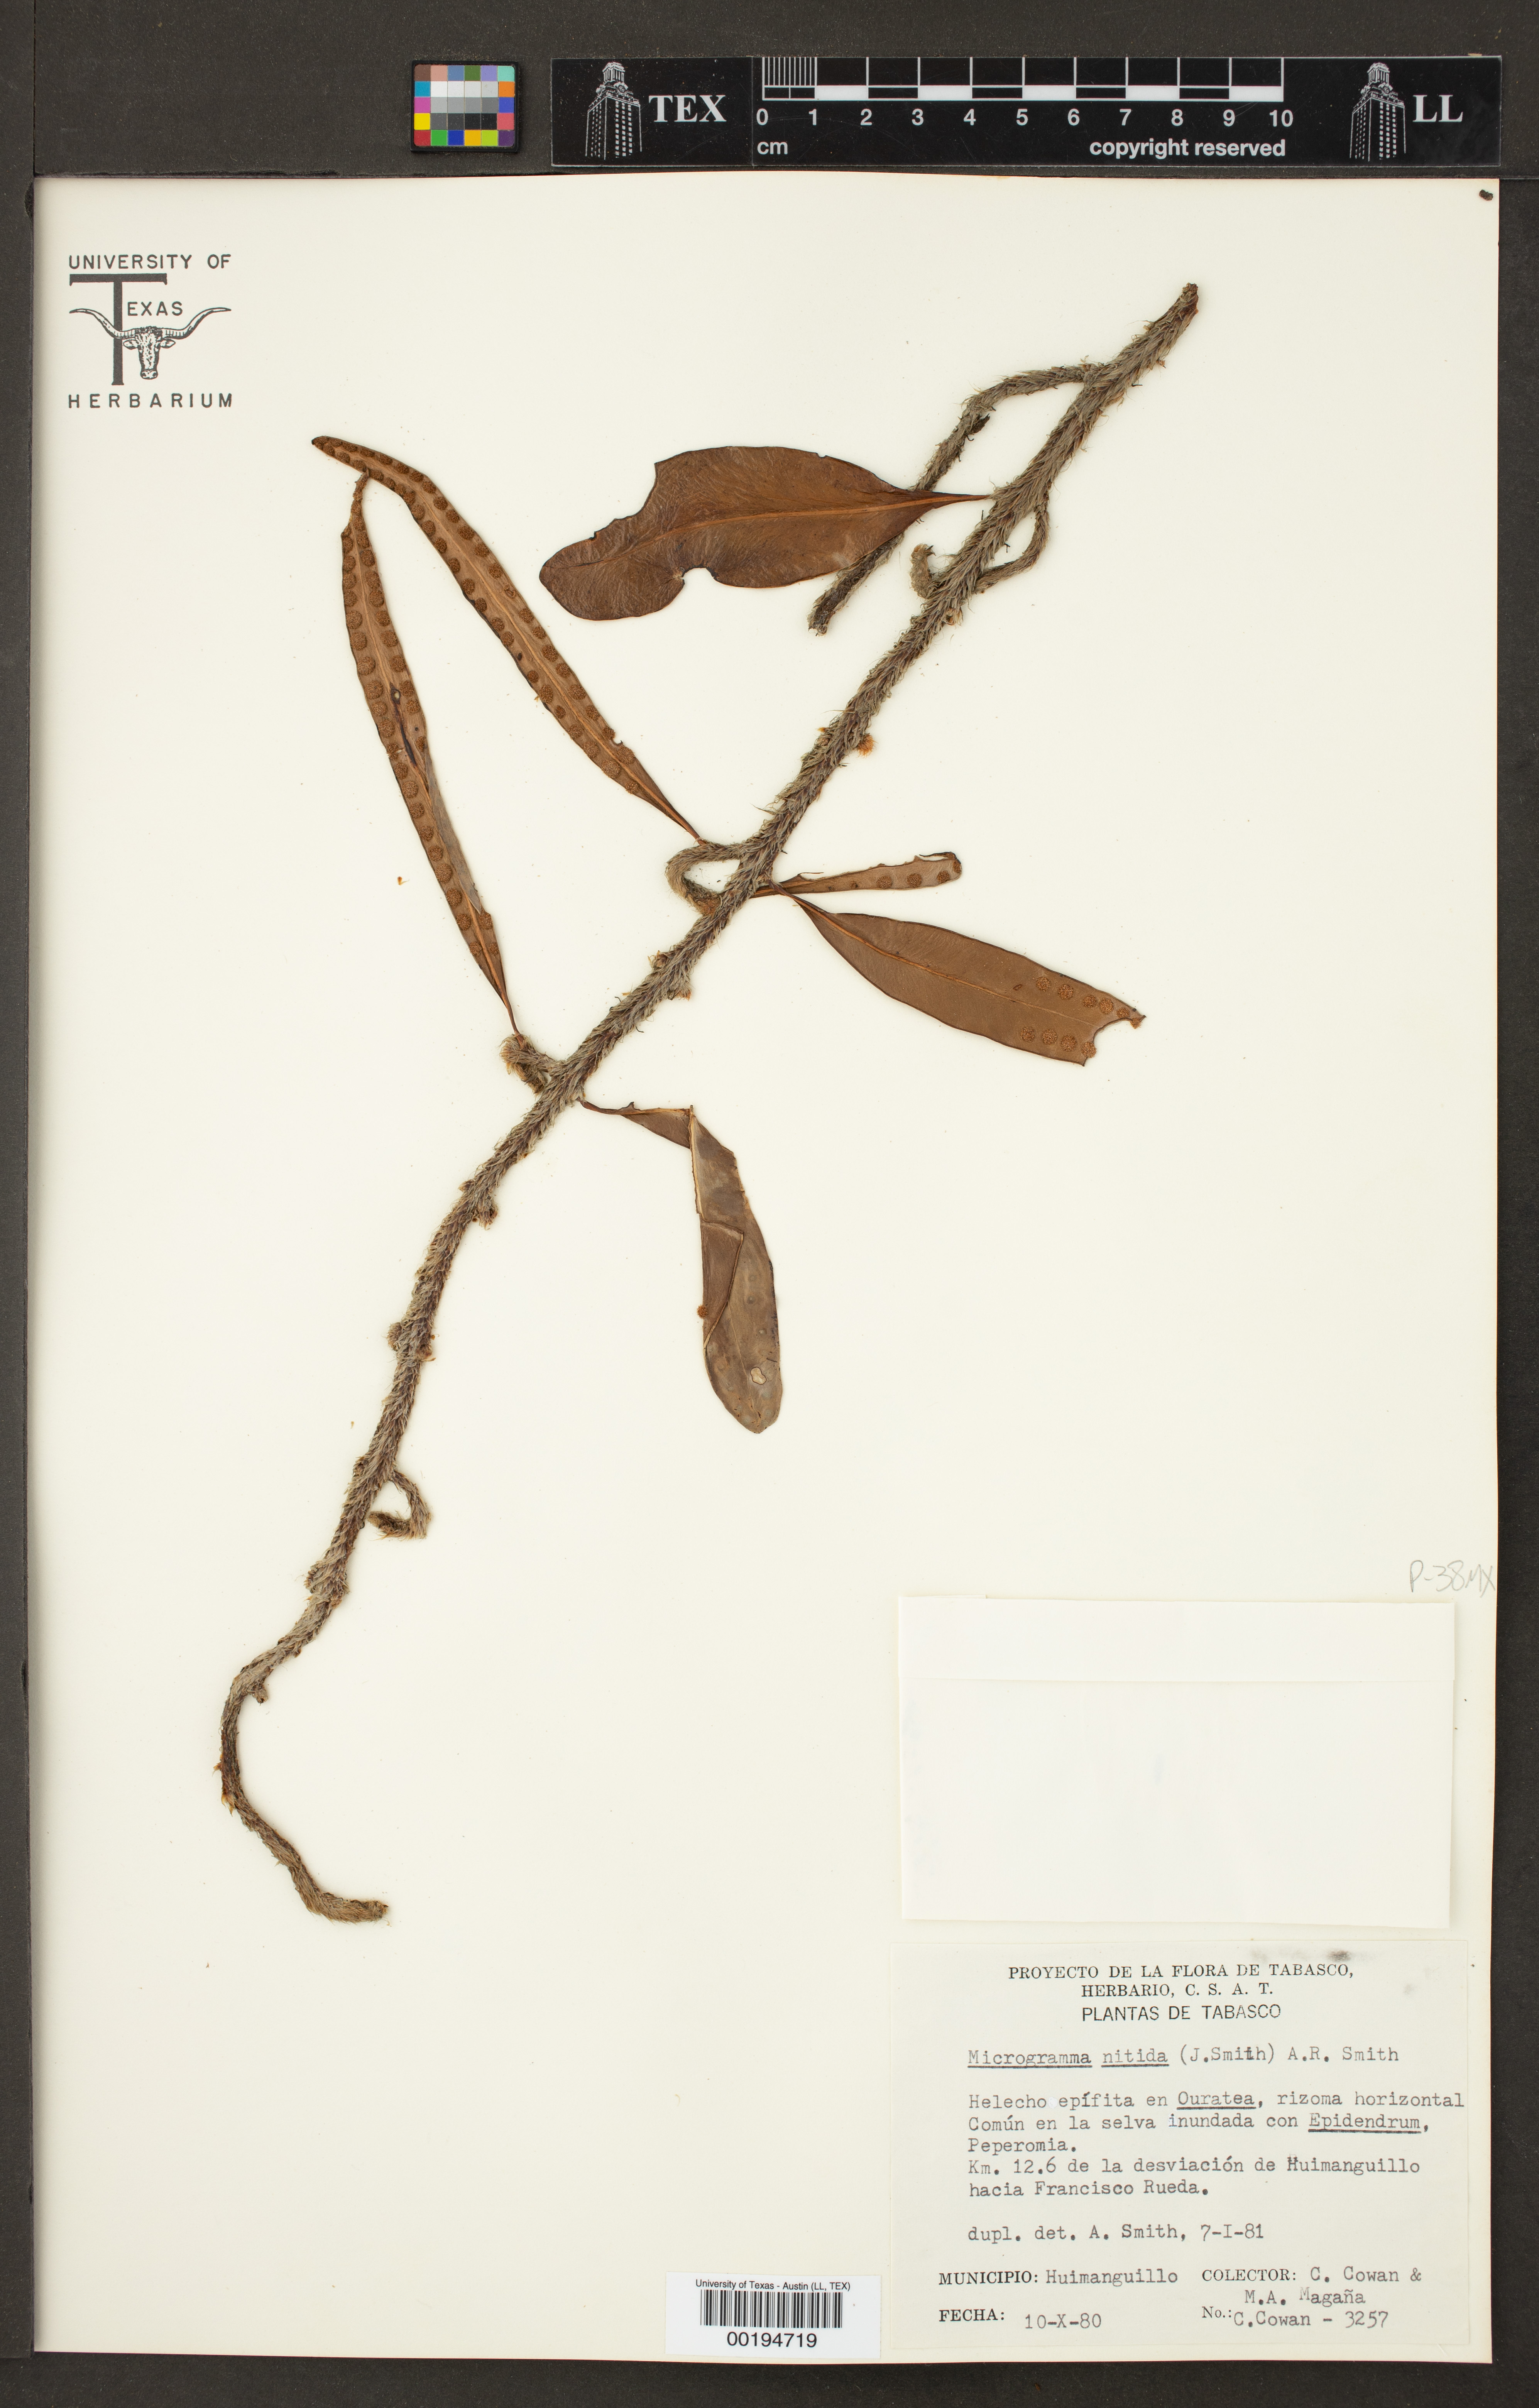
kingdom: Plantae
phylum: Tracheophyta
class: Polypodiopsida
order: Polypodiales
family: Polypodiaceae
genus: Microgramma
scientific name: Microgramma nitida
